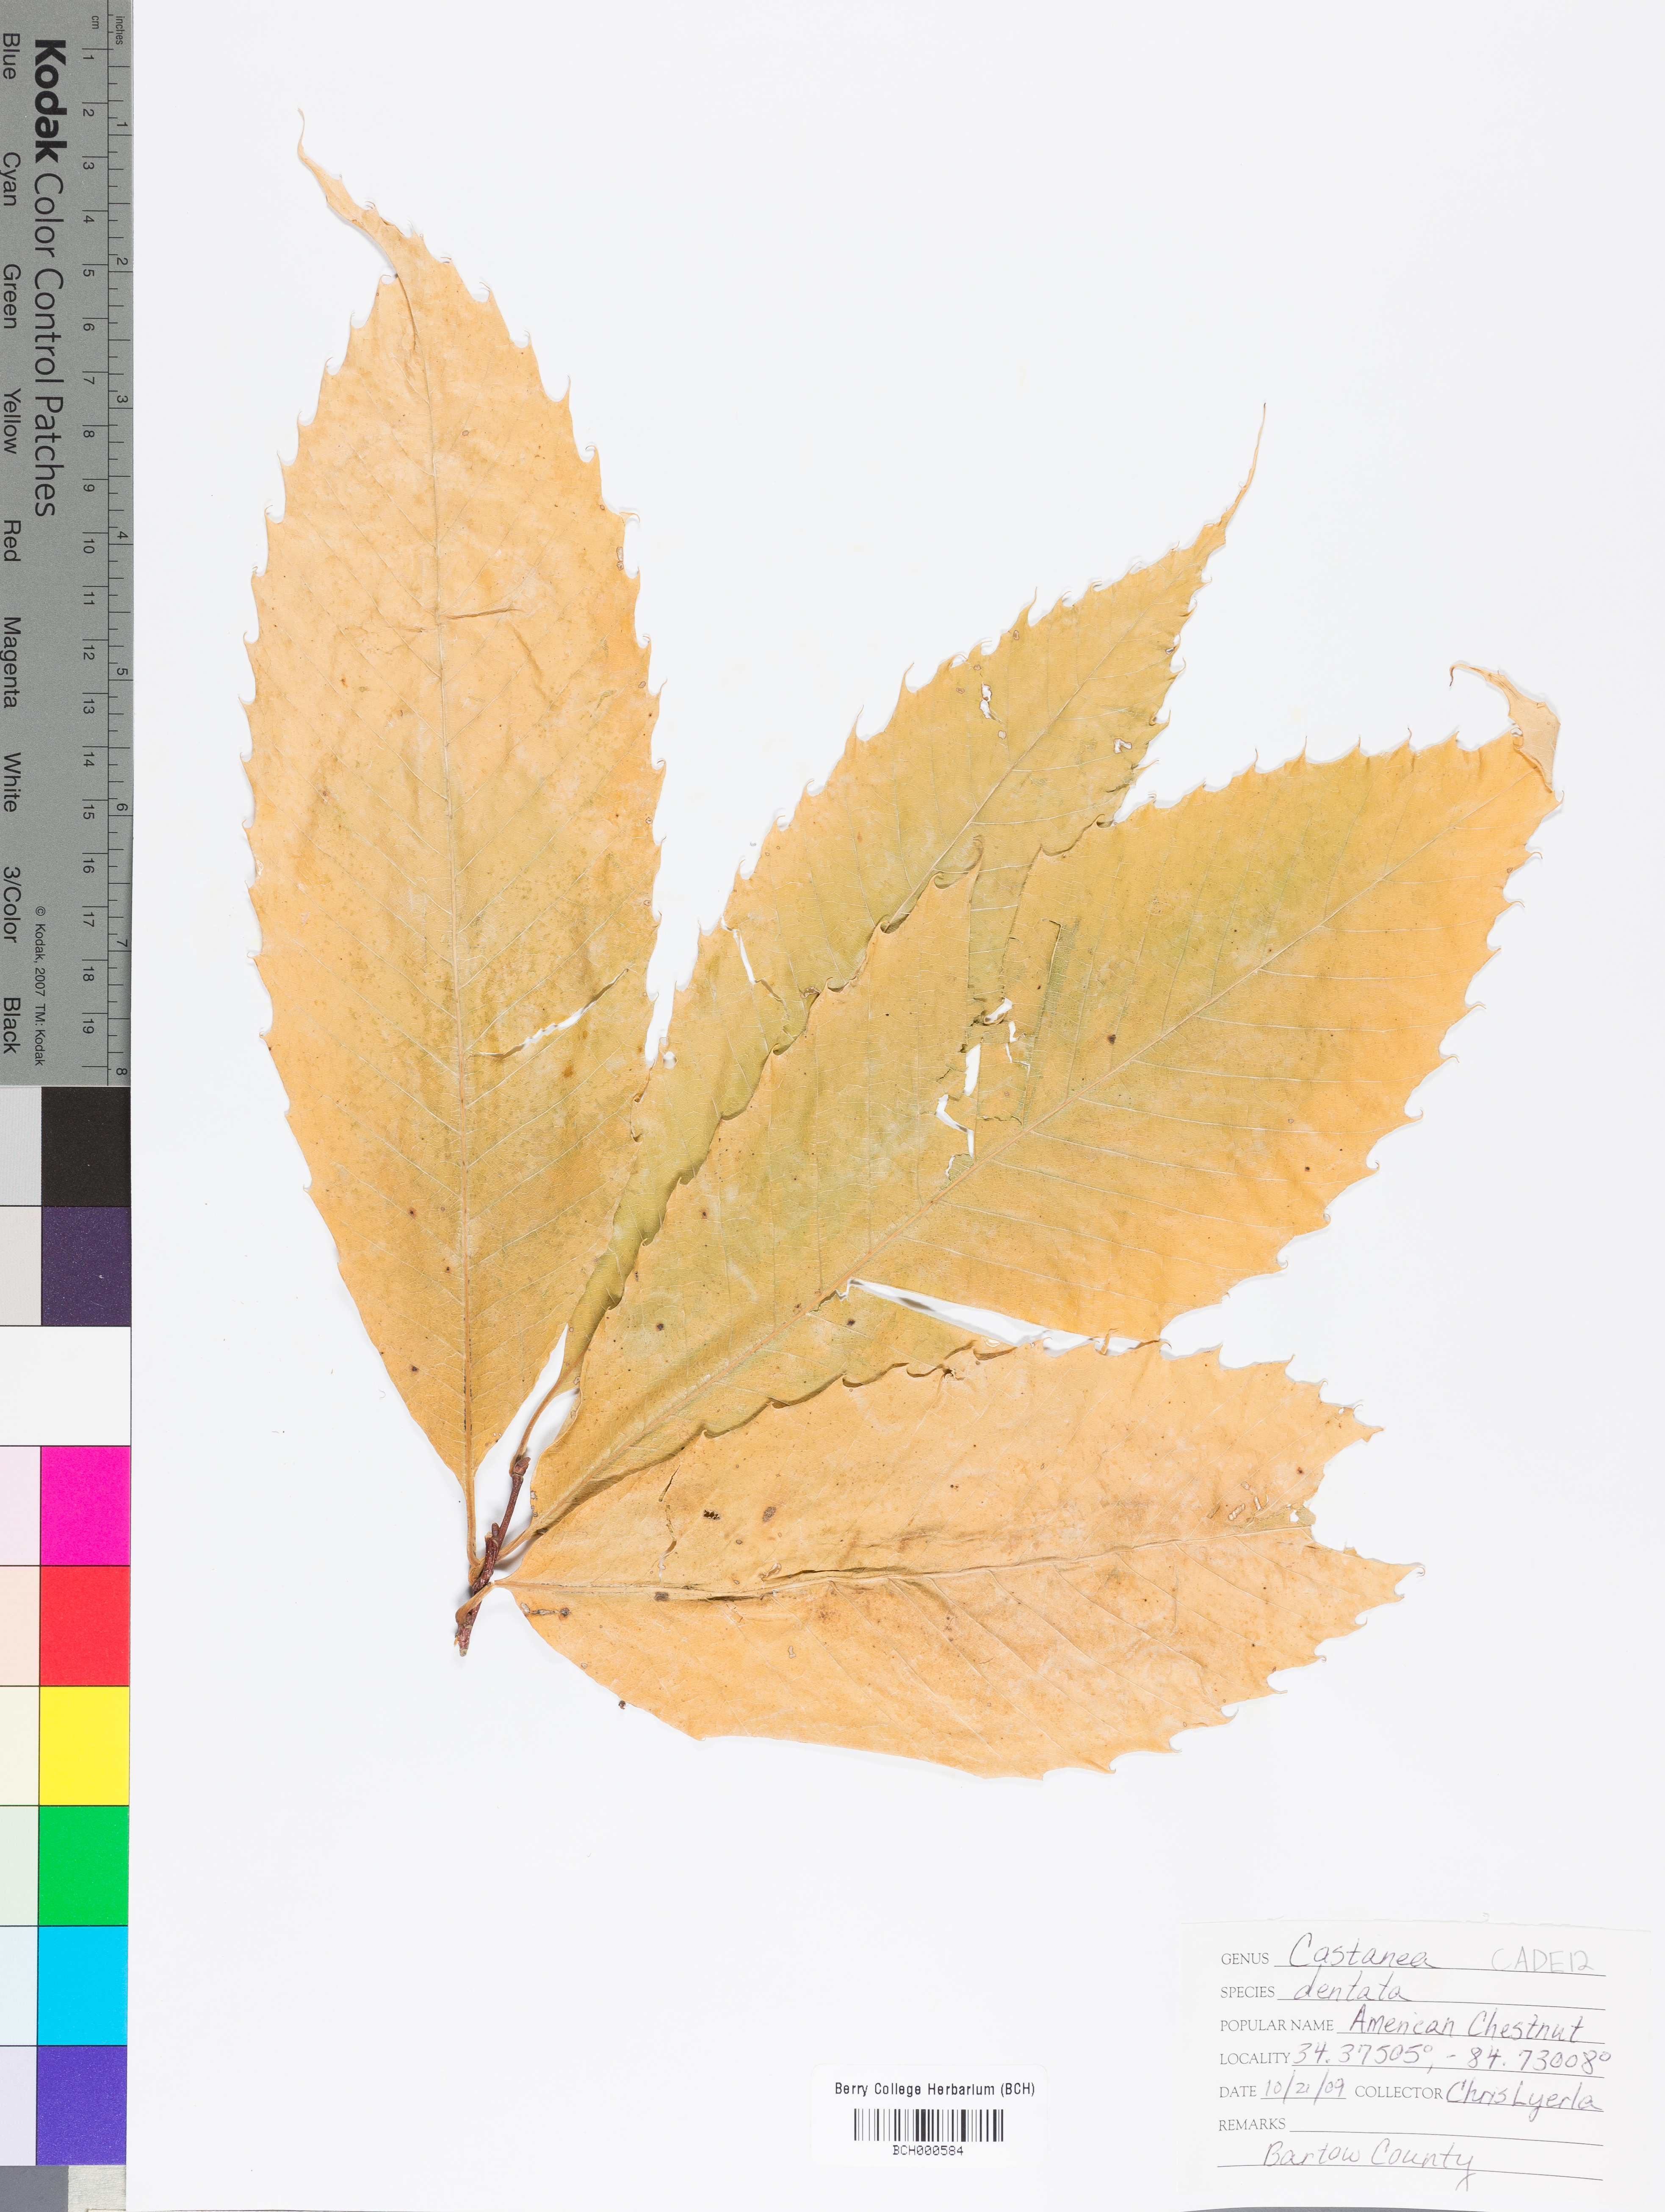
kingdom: Plantae
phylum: Tracheophyta
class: Magnoliopsida
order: Fagales
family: Fagaceae
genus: Castanea
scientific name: Castanea dentata
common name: American chestnut
